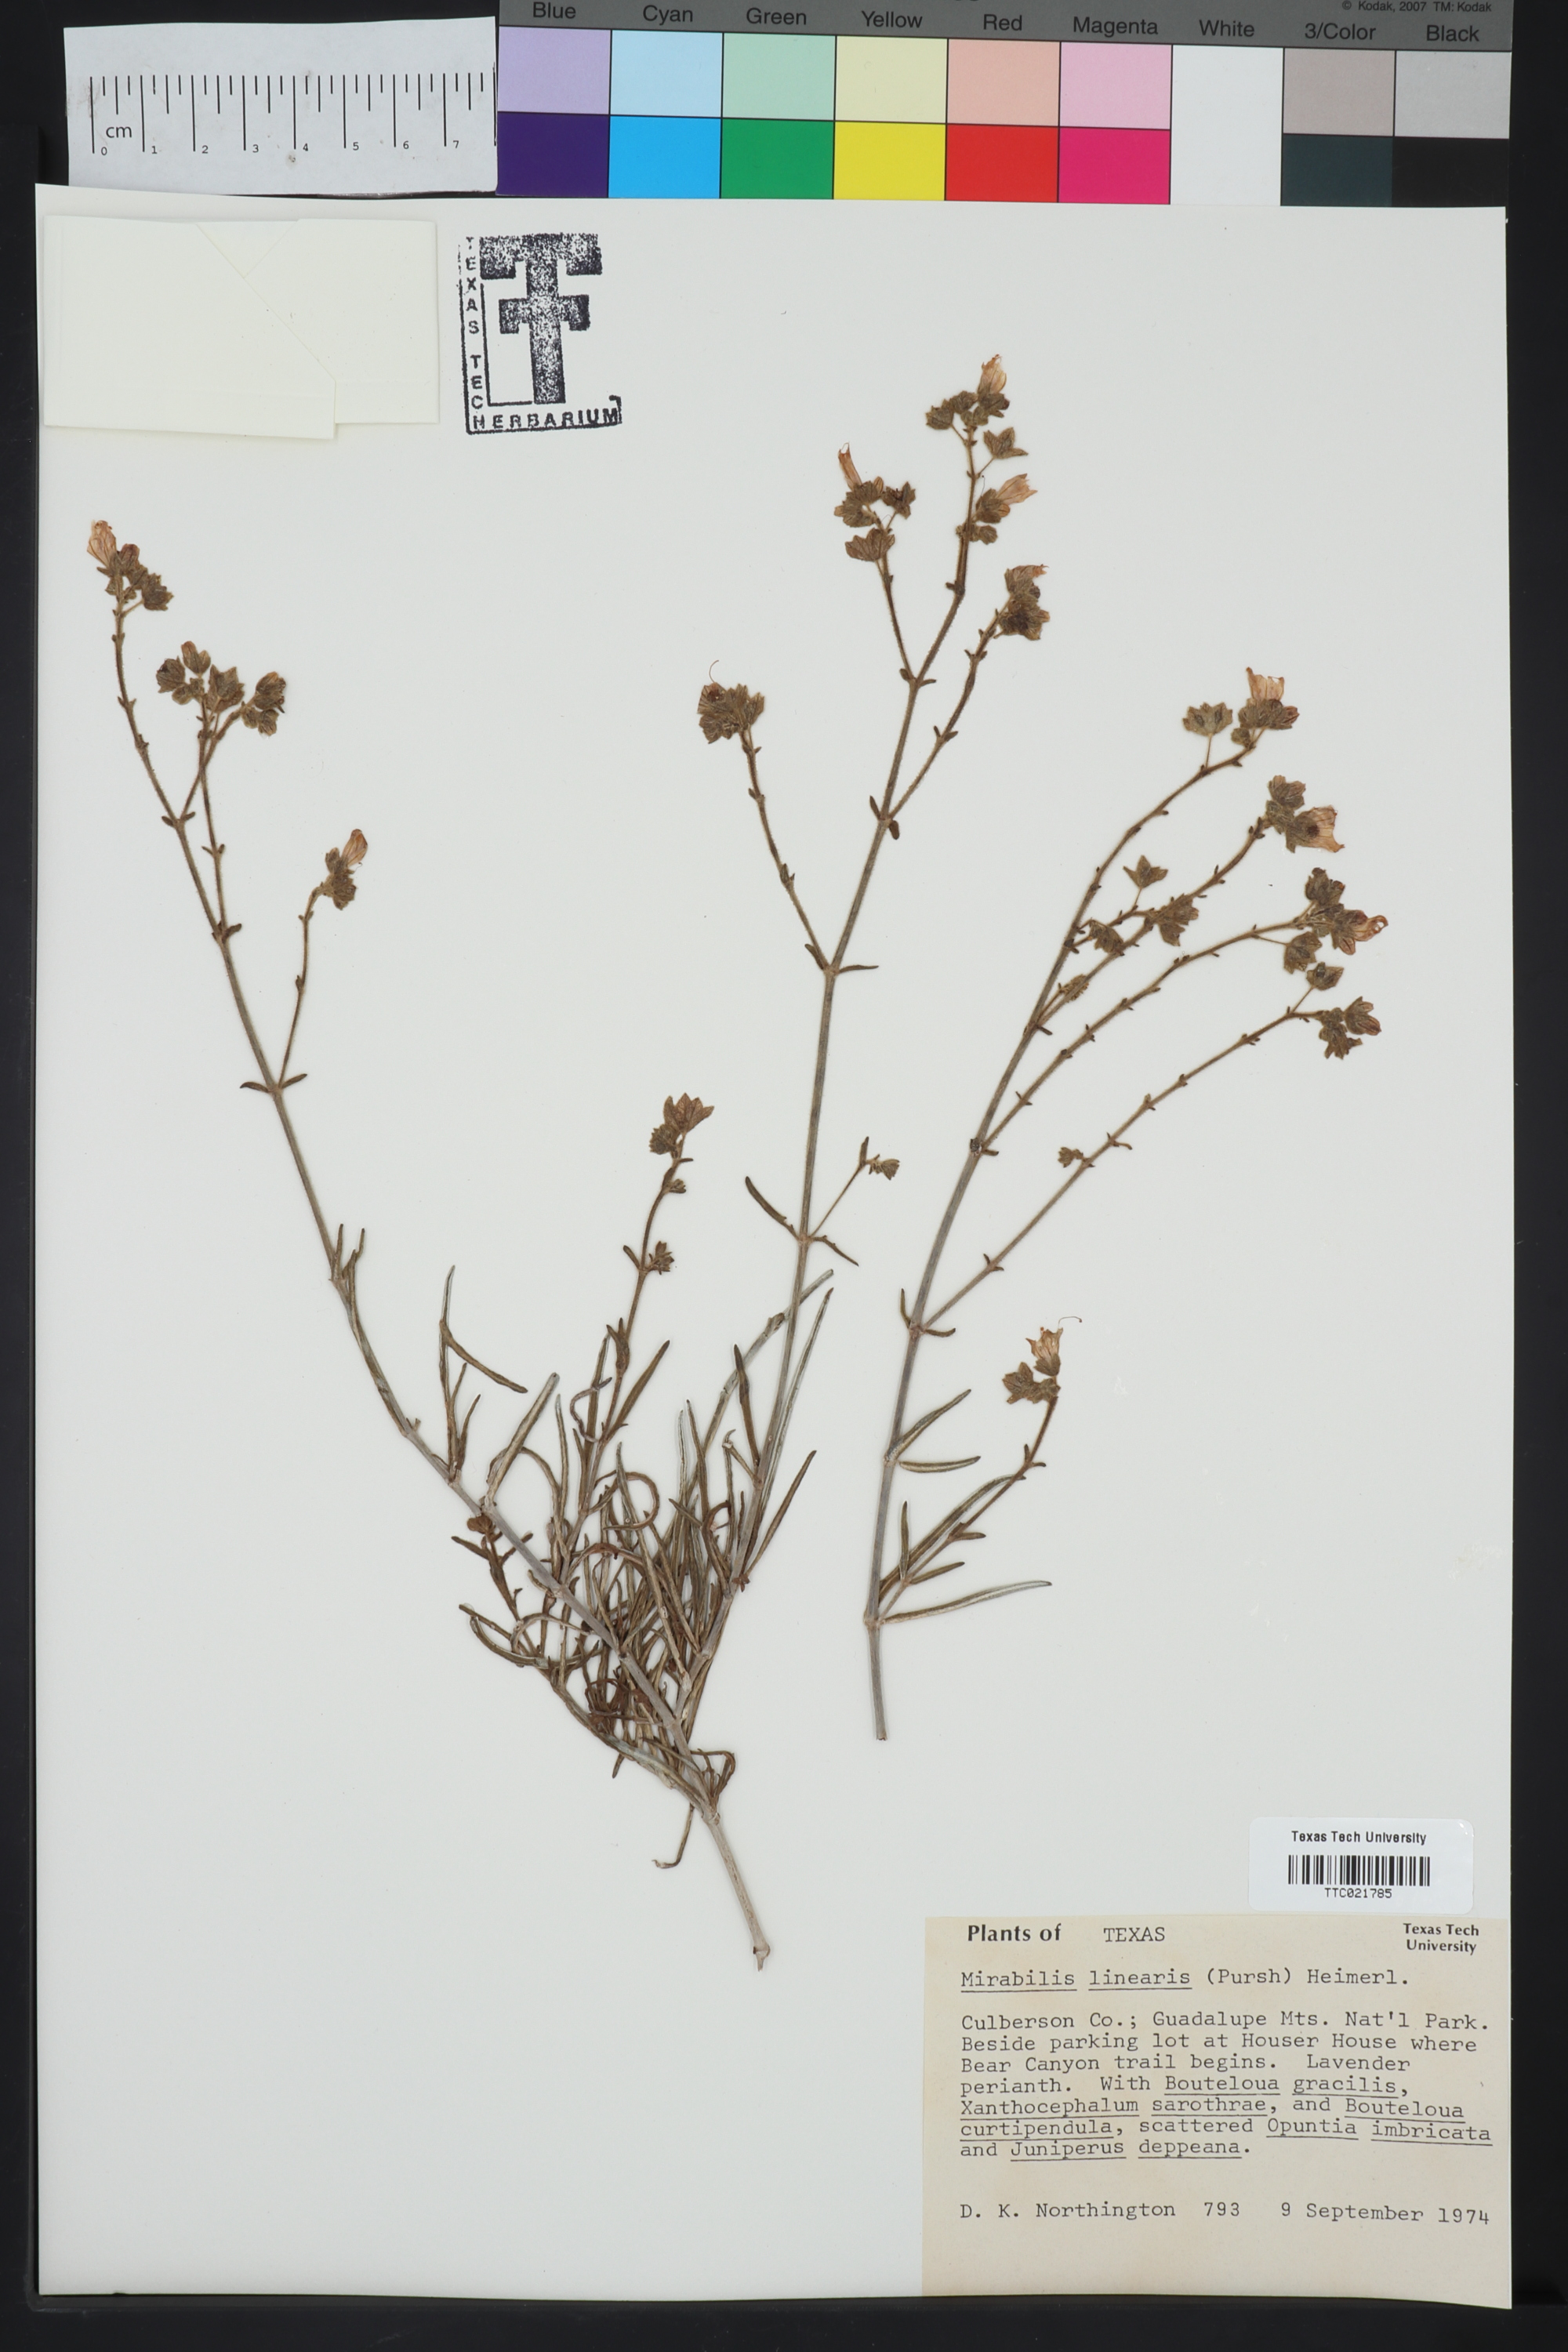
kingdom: Plantae
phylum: Tracheophyta
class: Magnoliopsida
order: Caryophyllales
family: Nyctaginaceae
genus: Mirabilis
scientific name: Mirabilis linearis
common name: Linear-leaved four-o'clock
